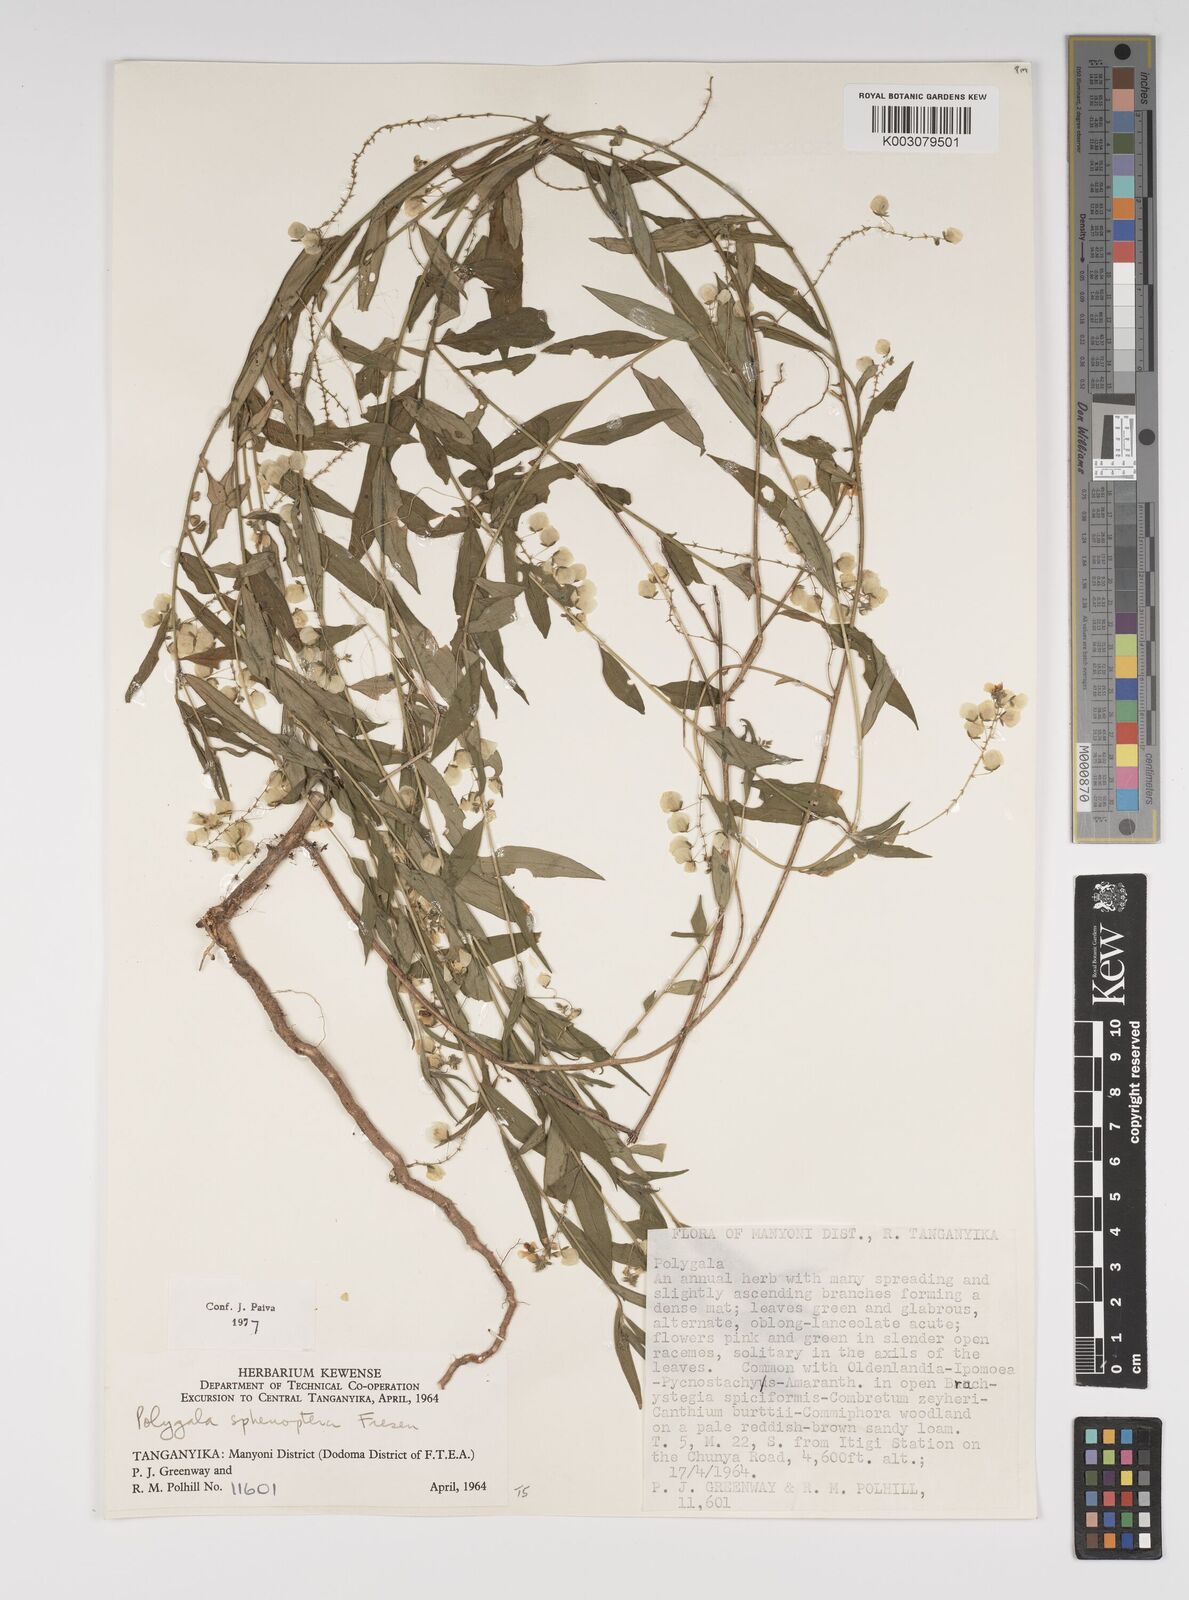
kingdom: Plantae
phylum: Tracheophyta
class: Magnoliopsida
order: Fabales
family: Polygalaceae
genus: Polygala
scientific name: Polygala sphenoptera
